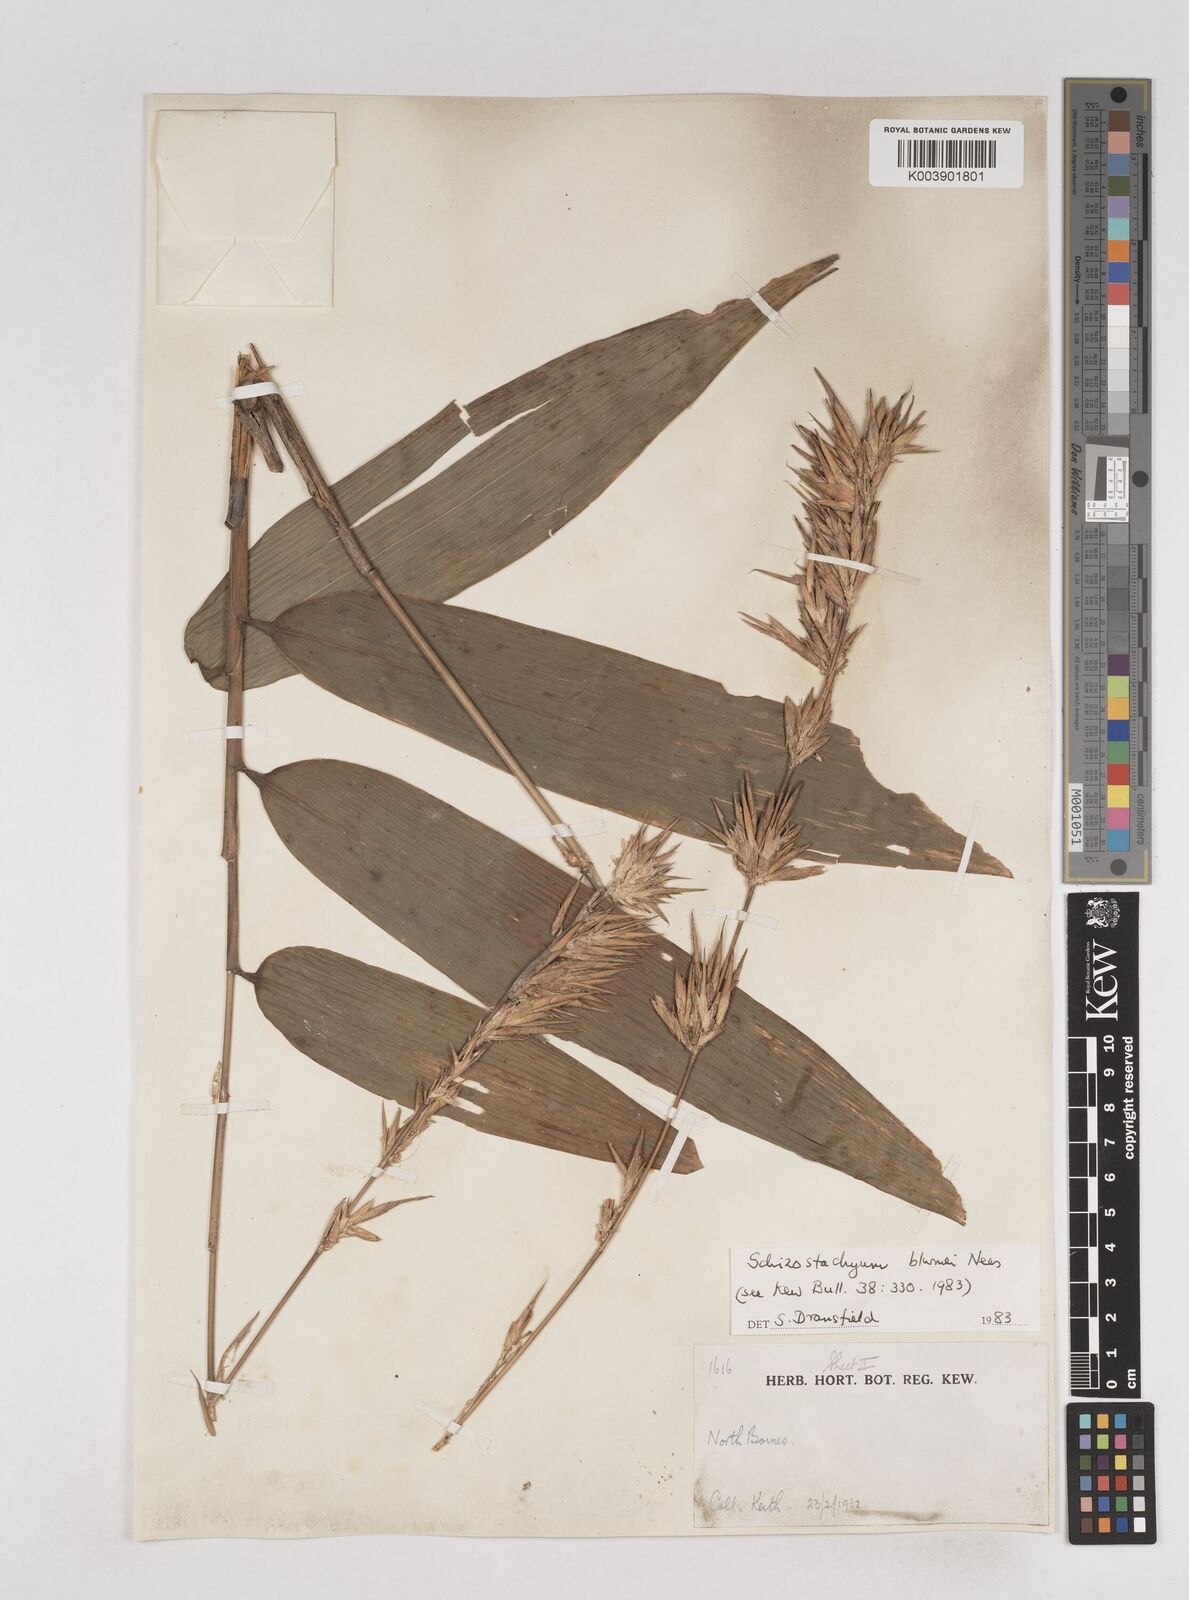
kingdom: Plantae
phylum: Tracheophyta
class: Liliopsida
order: Poales
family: Poaceae
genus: Schizostachyum
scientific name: Schizostachyum blumei
